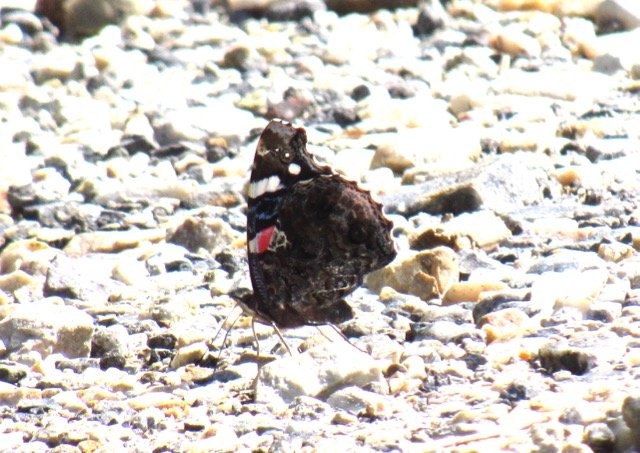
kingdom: Animalia
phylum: Arthropoda
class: Insecta
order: Lepidoptera
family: Nymphalidae
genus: Vanessa
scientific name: Vanessa atalanta
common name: Red Admiral
